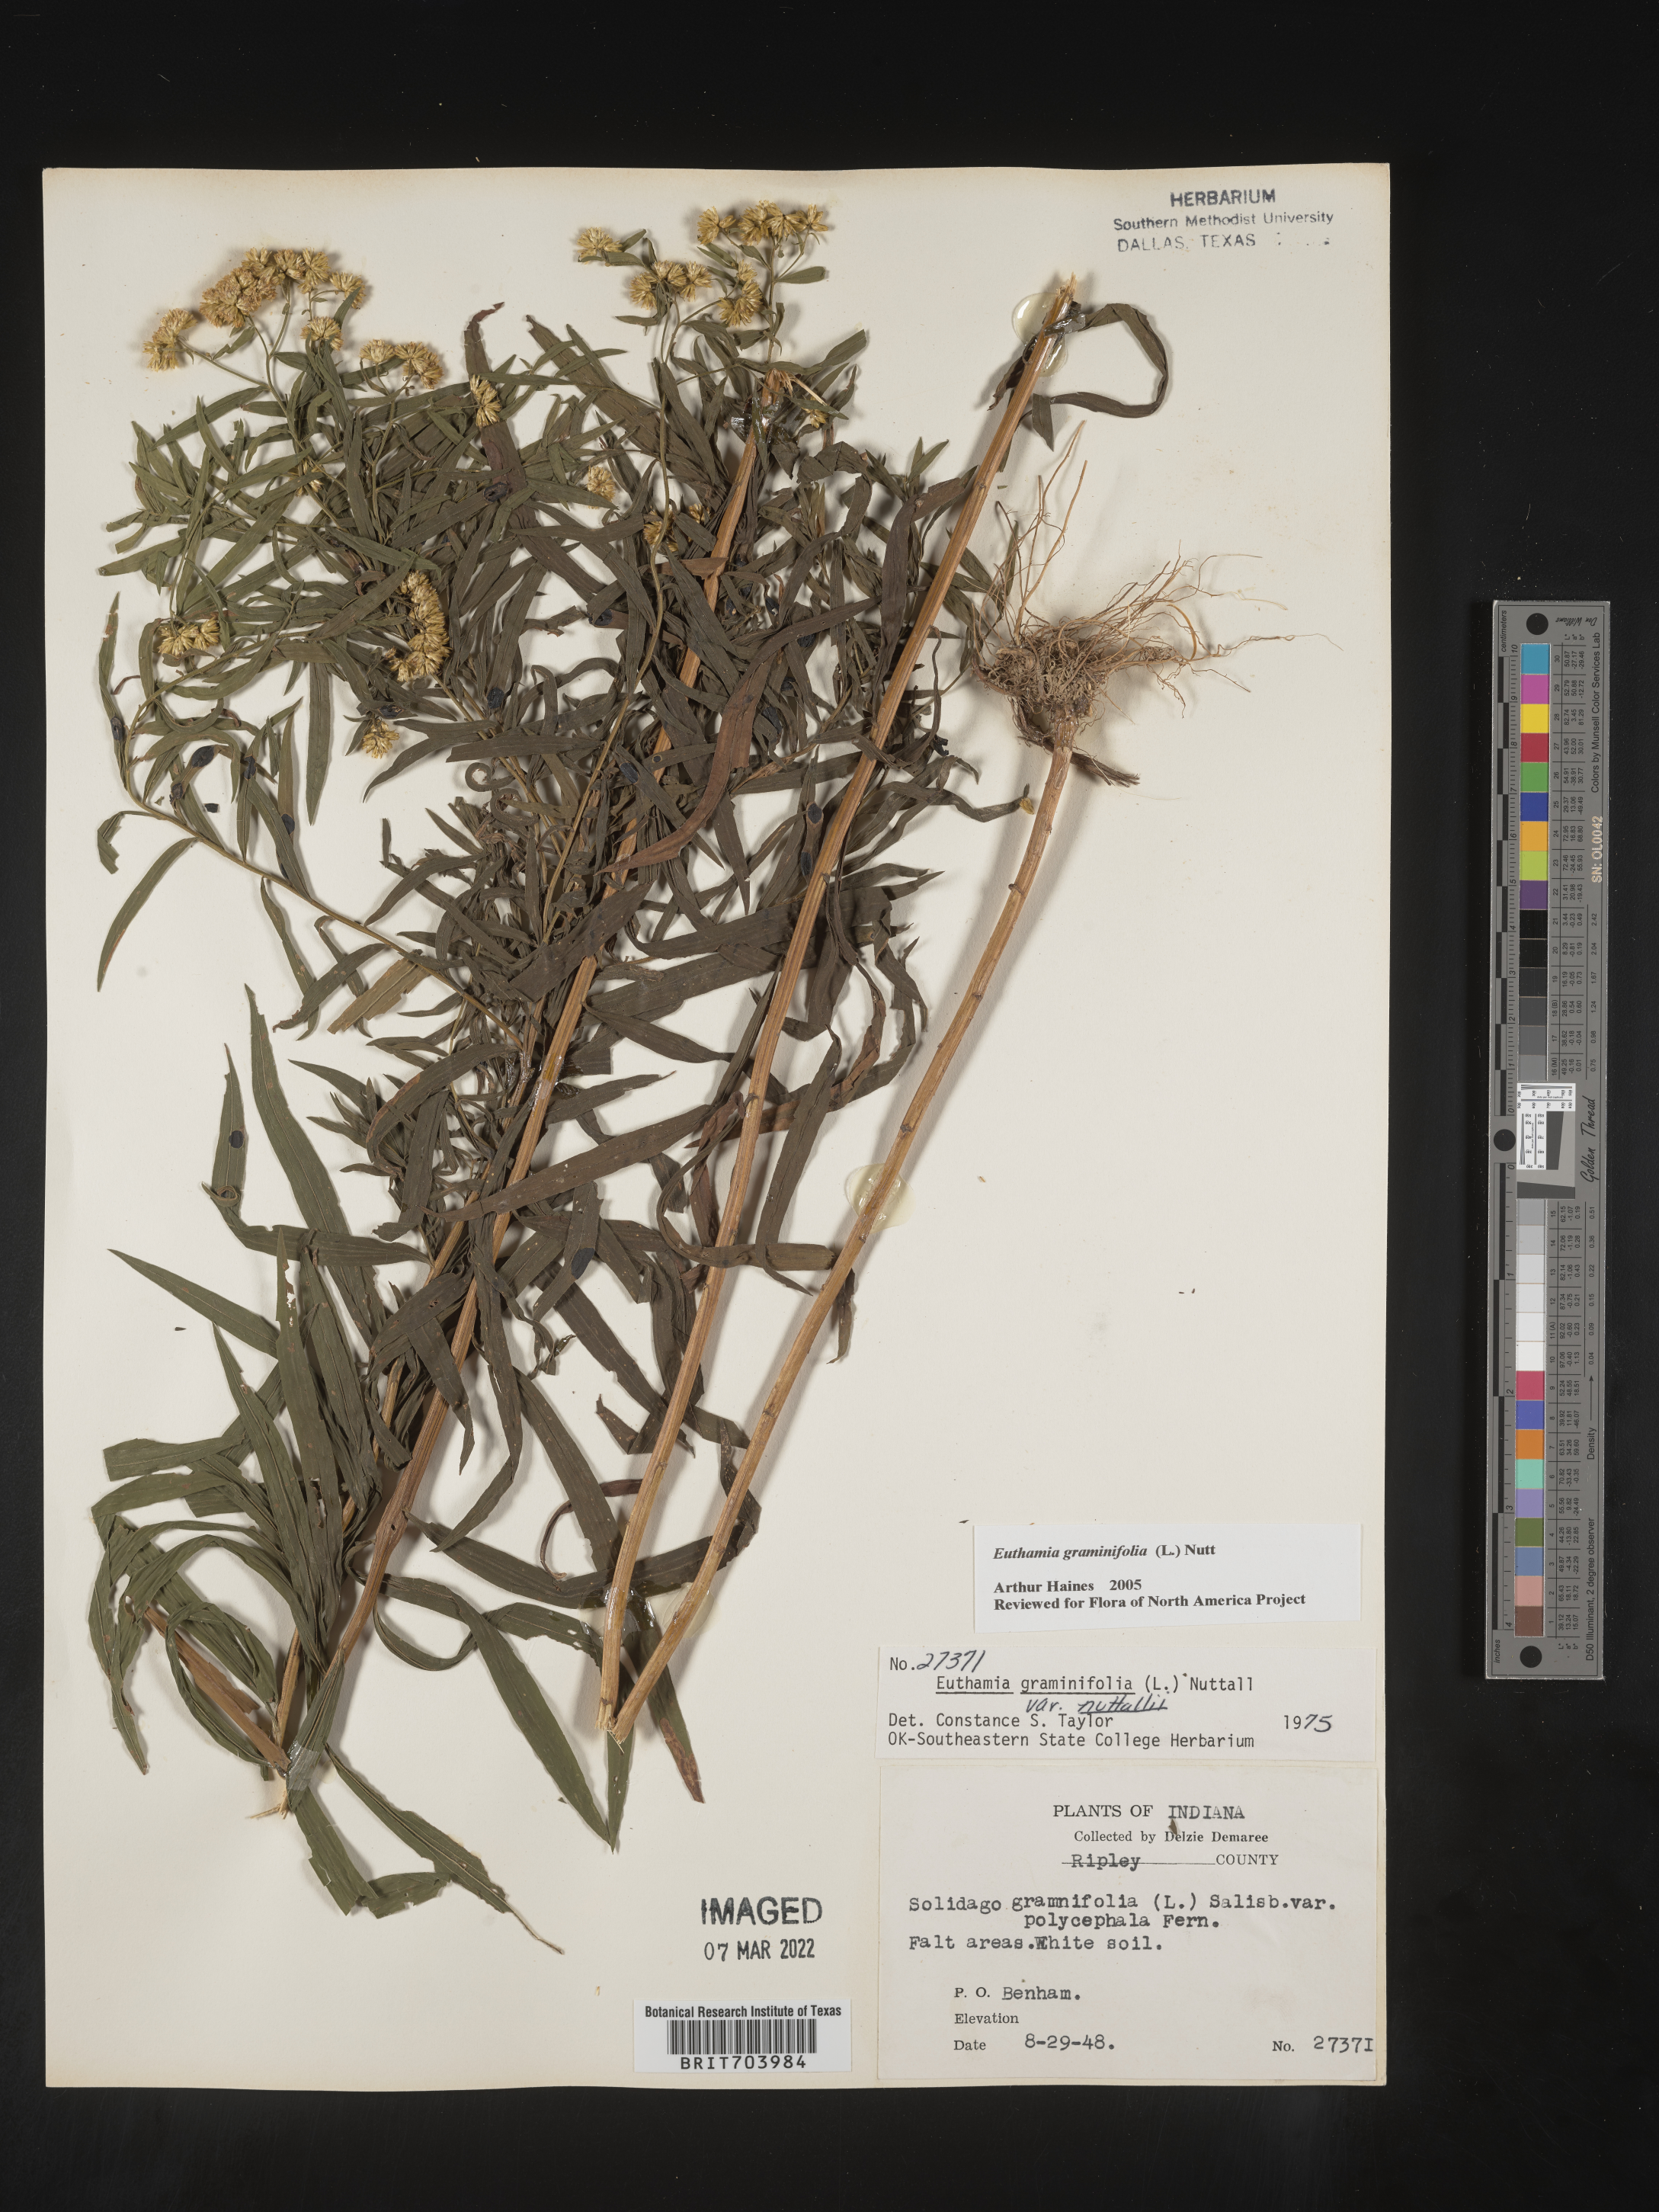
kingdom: Plantae
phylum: Tracheophyta
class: Magnoliopsida
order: Asterales
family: Asteraceae
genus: Euthamia
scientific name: Euthamia graminifolia
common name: Common goldentop
